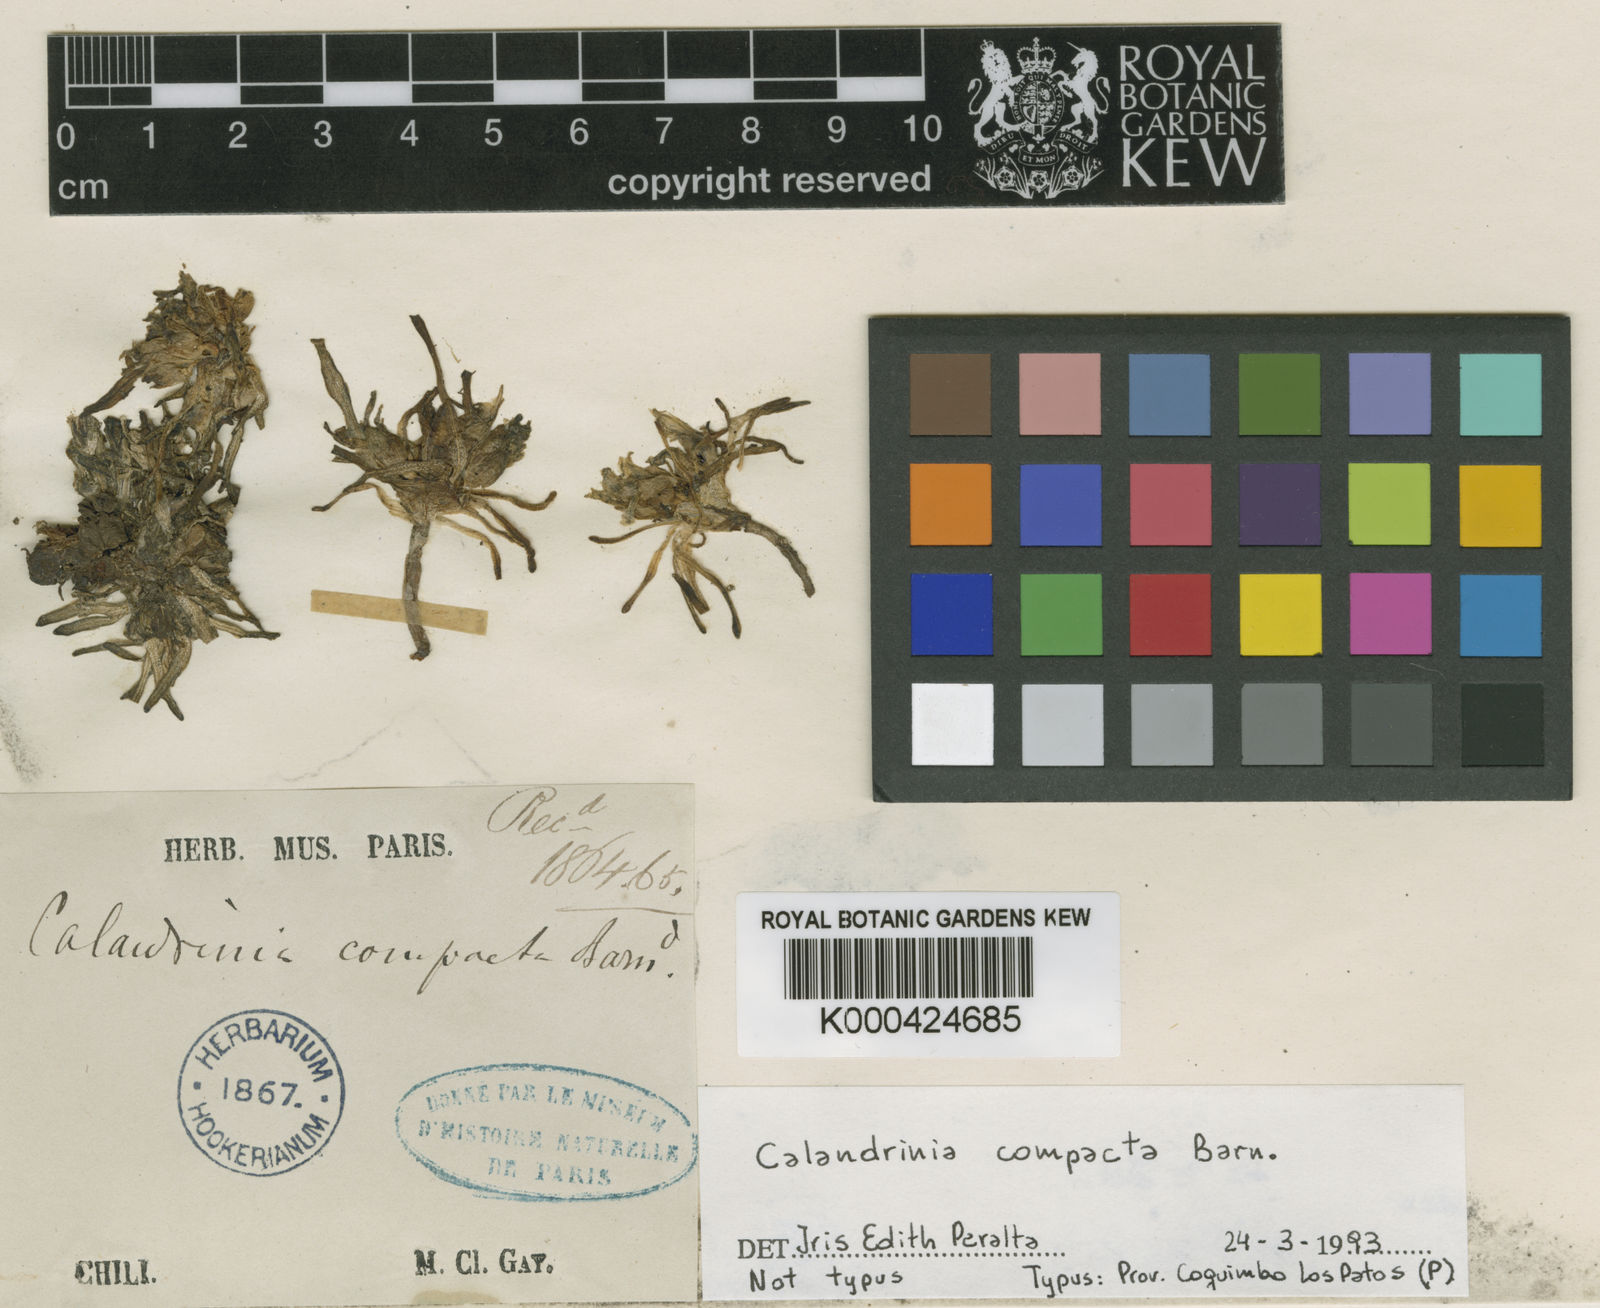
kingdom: Plantae
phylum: Tracheophyta
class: Magnoliopsida
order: Caryophyllales
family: Montiaceae
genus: Calandrinia
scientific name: Calandrinia
